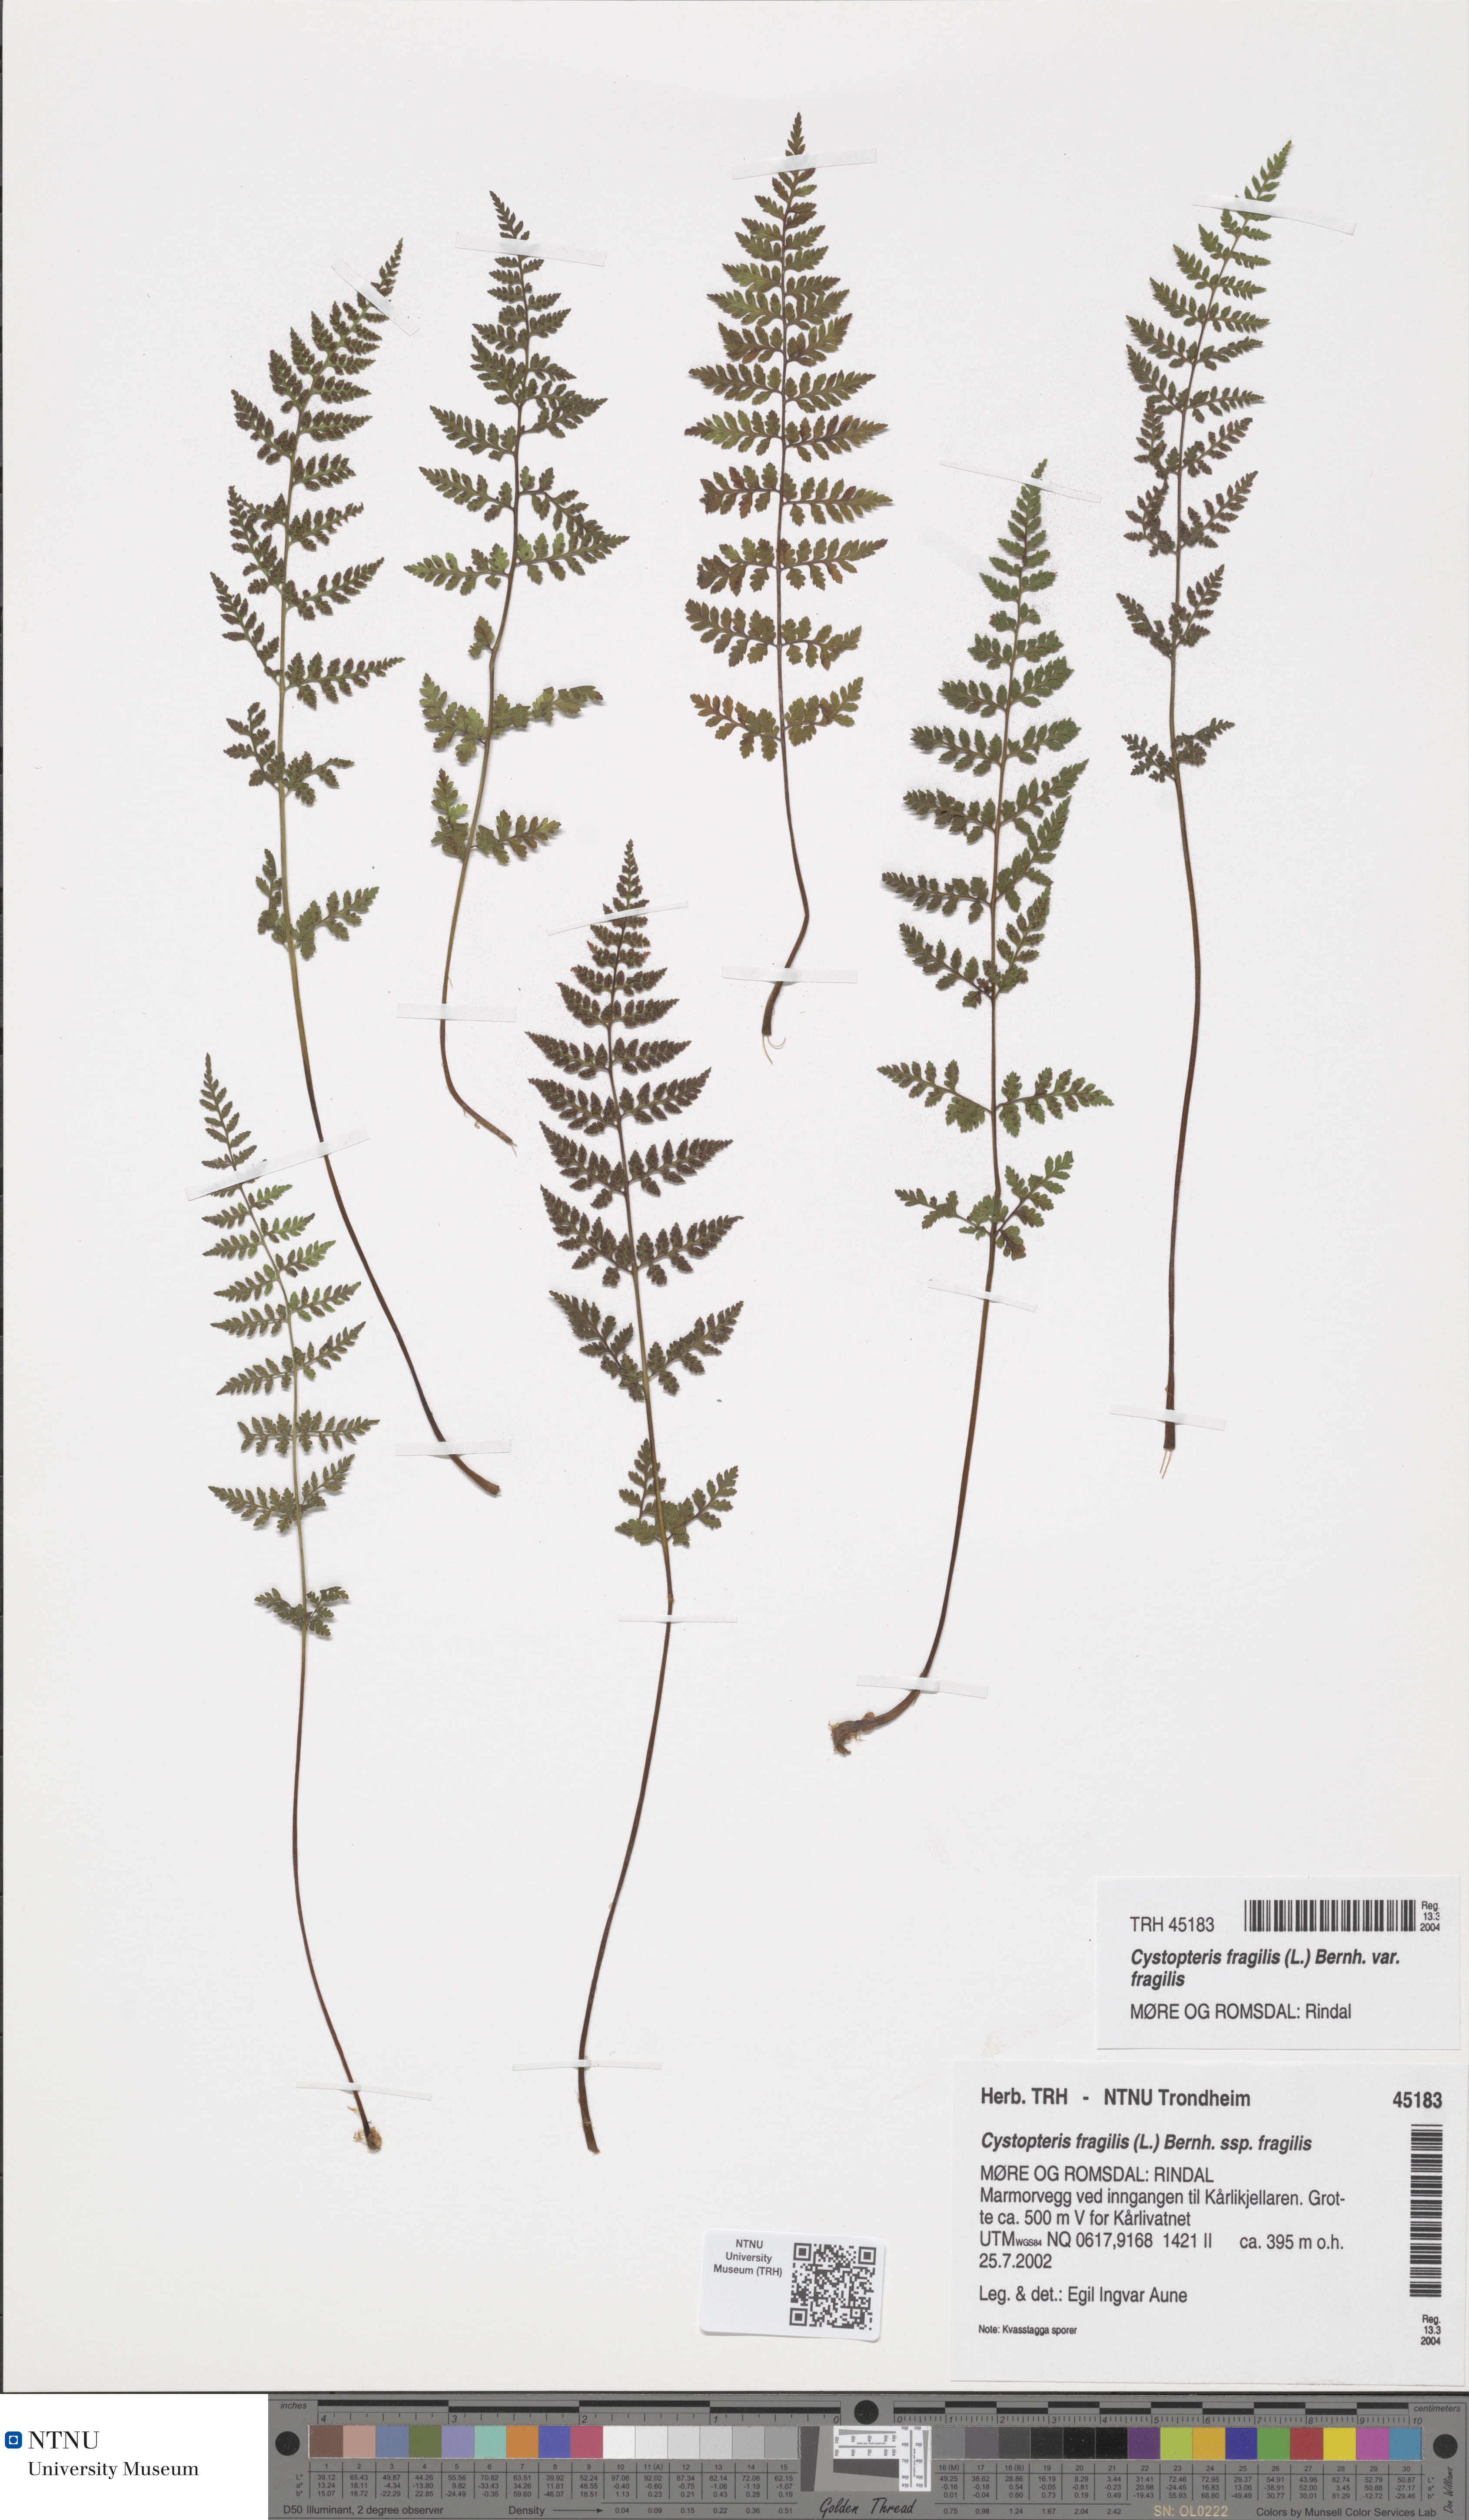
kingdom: Plantae
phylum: Tracheophyta
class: Polypodiopsida
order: Polypodiales
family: Cystopteridaceae
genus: Cystopteris
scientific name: Cystopteris fragilis
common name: Brittle bladder fern
